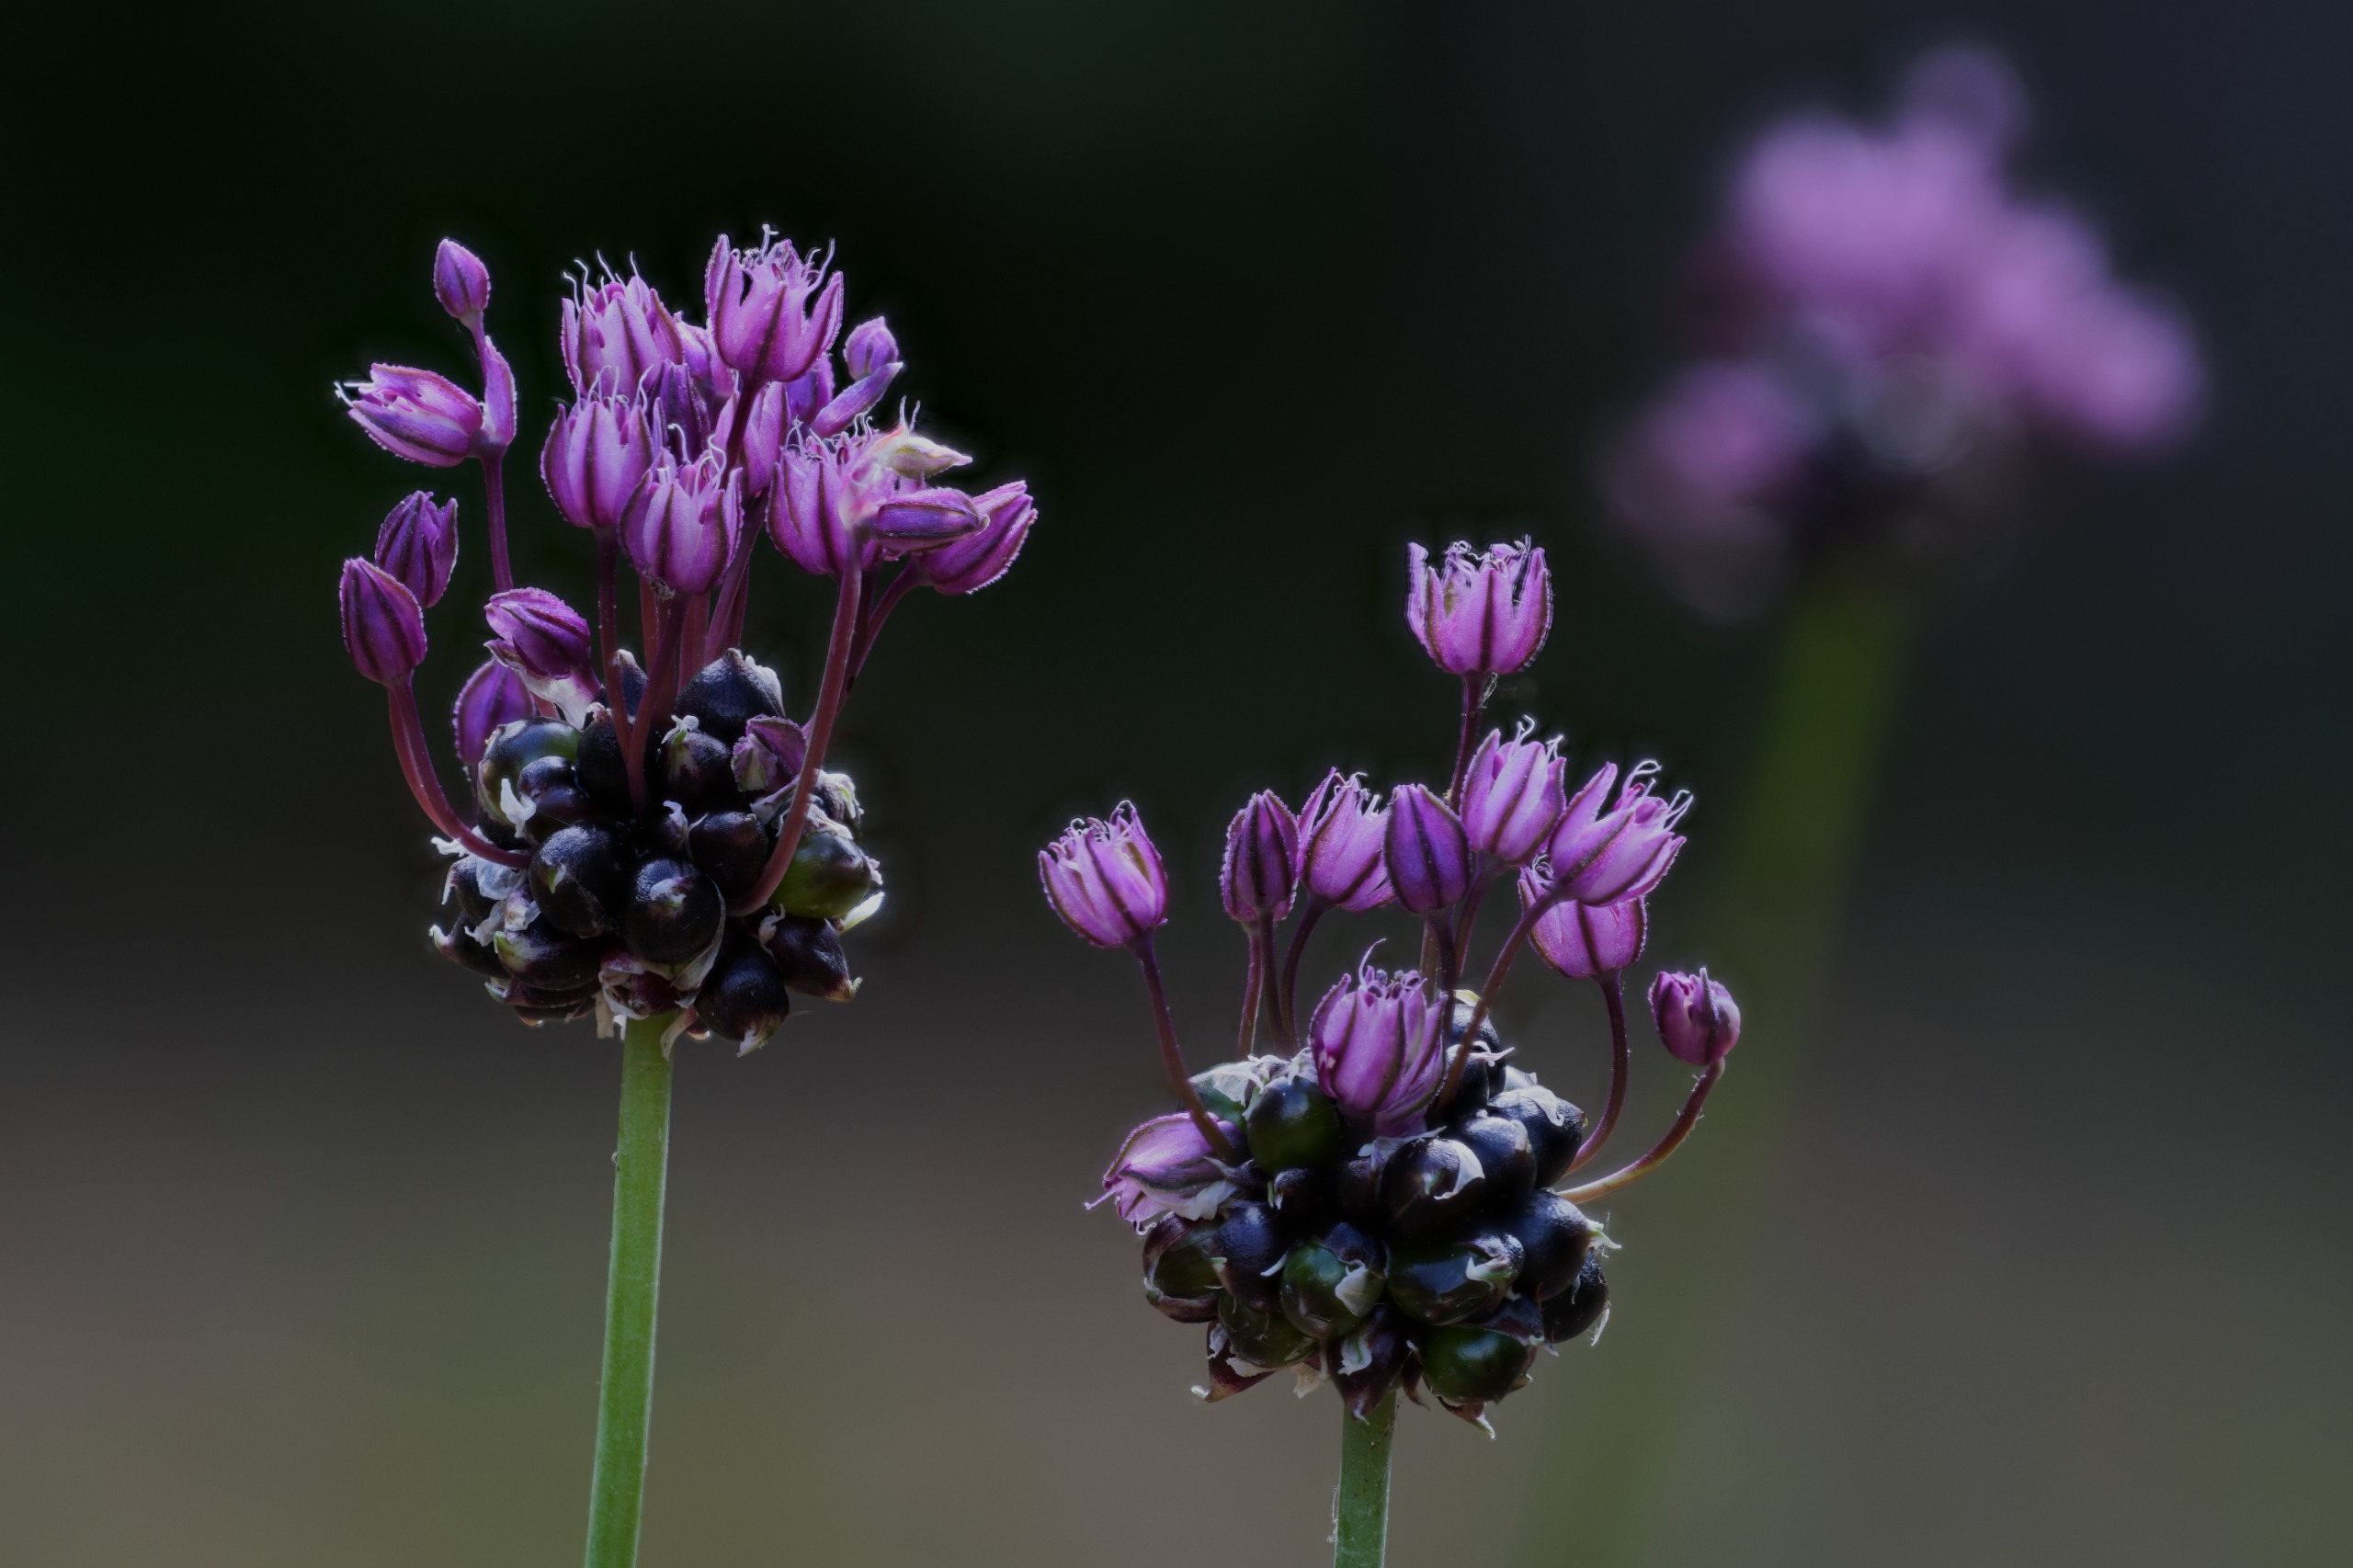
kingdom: Plantae
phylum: Tracheophyta
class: Liliopsida
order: Asparagales
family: Amaryllidaceae
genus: Allium
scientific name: Allium scorodoprasum
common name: Skov-løg
